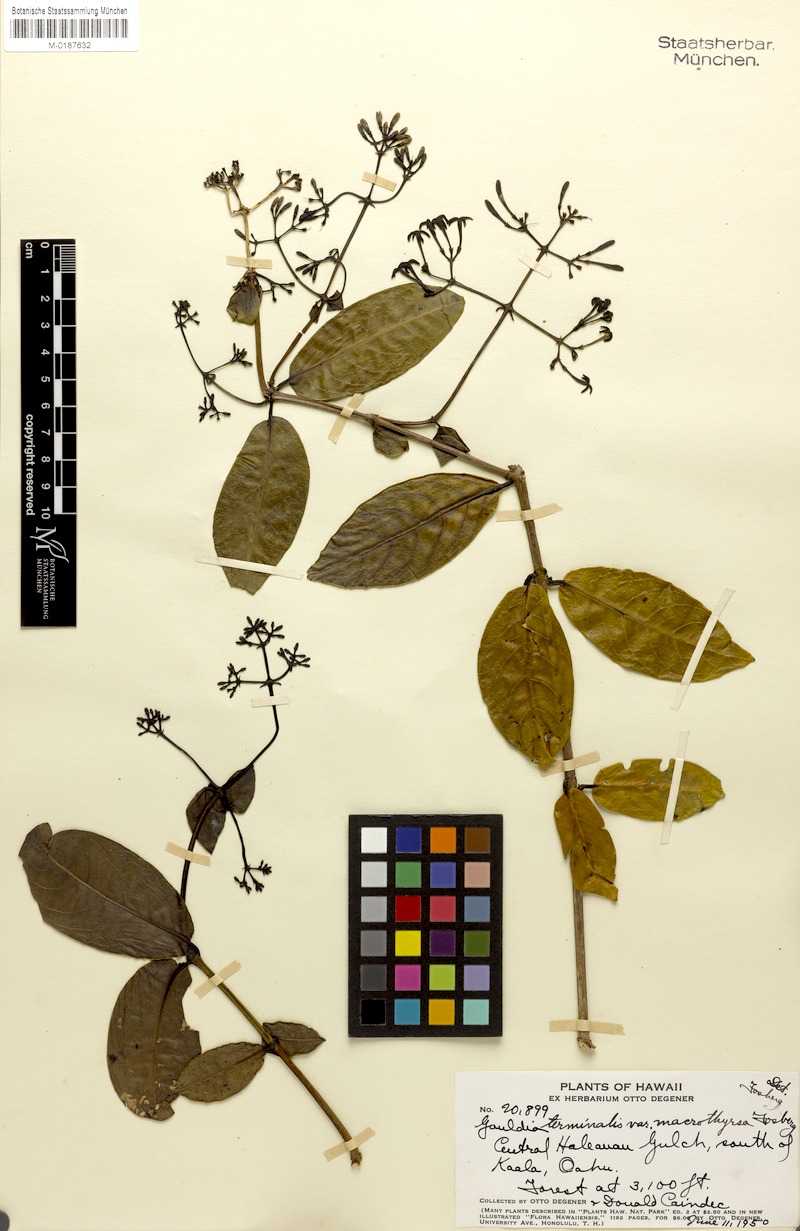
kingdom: Plantae
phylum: Tracheophyta
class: Magnoliopsida
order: Gentianales
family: Rubiaceae
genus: Kadua
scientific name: Kadua affinis
